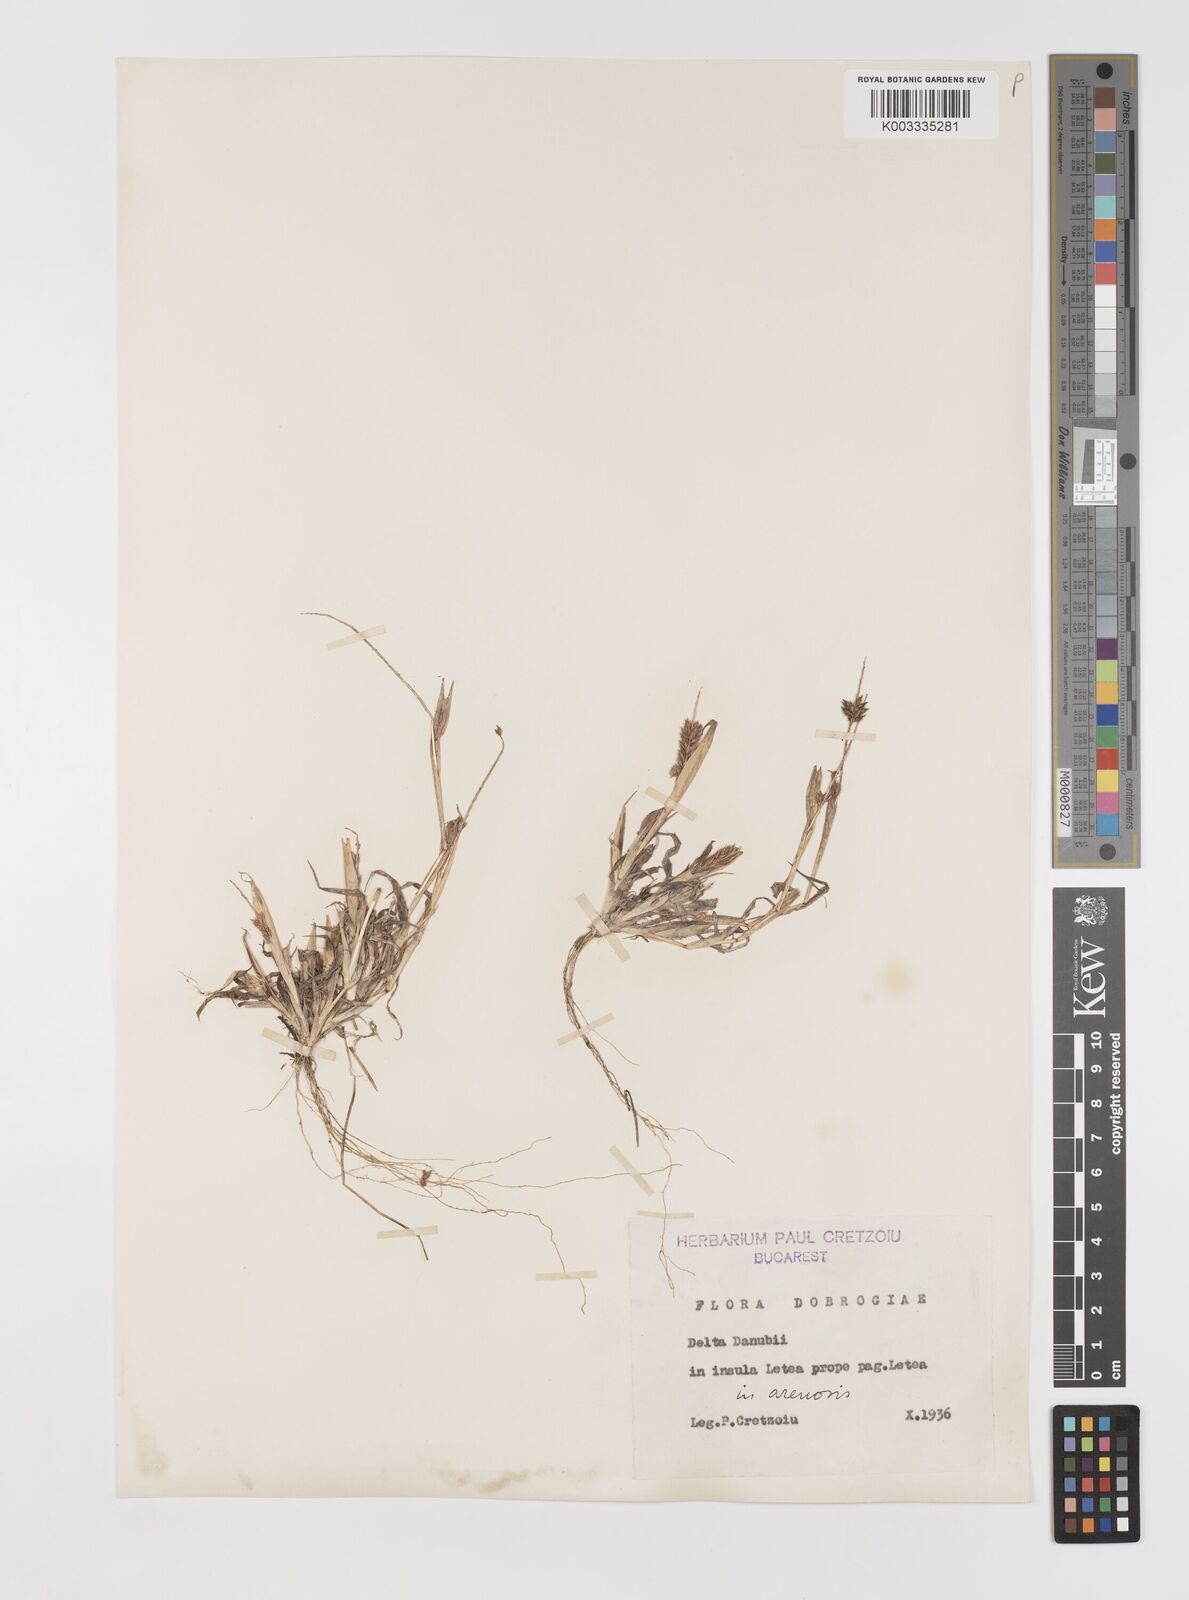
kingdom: Plantae
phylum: Tracheophyta
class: Liliopsida
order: Poales
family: Poaceae
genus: Tragus
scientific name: Tragus racemosus
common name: European bur-grass
